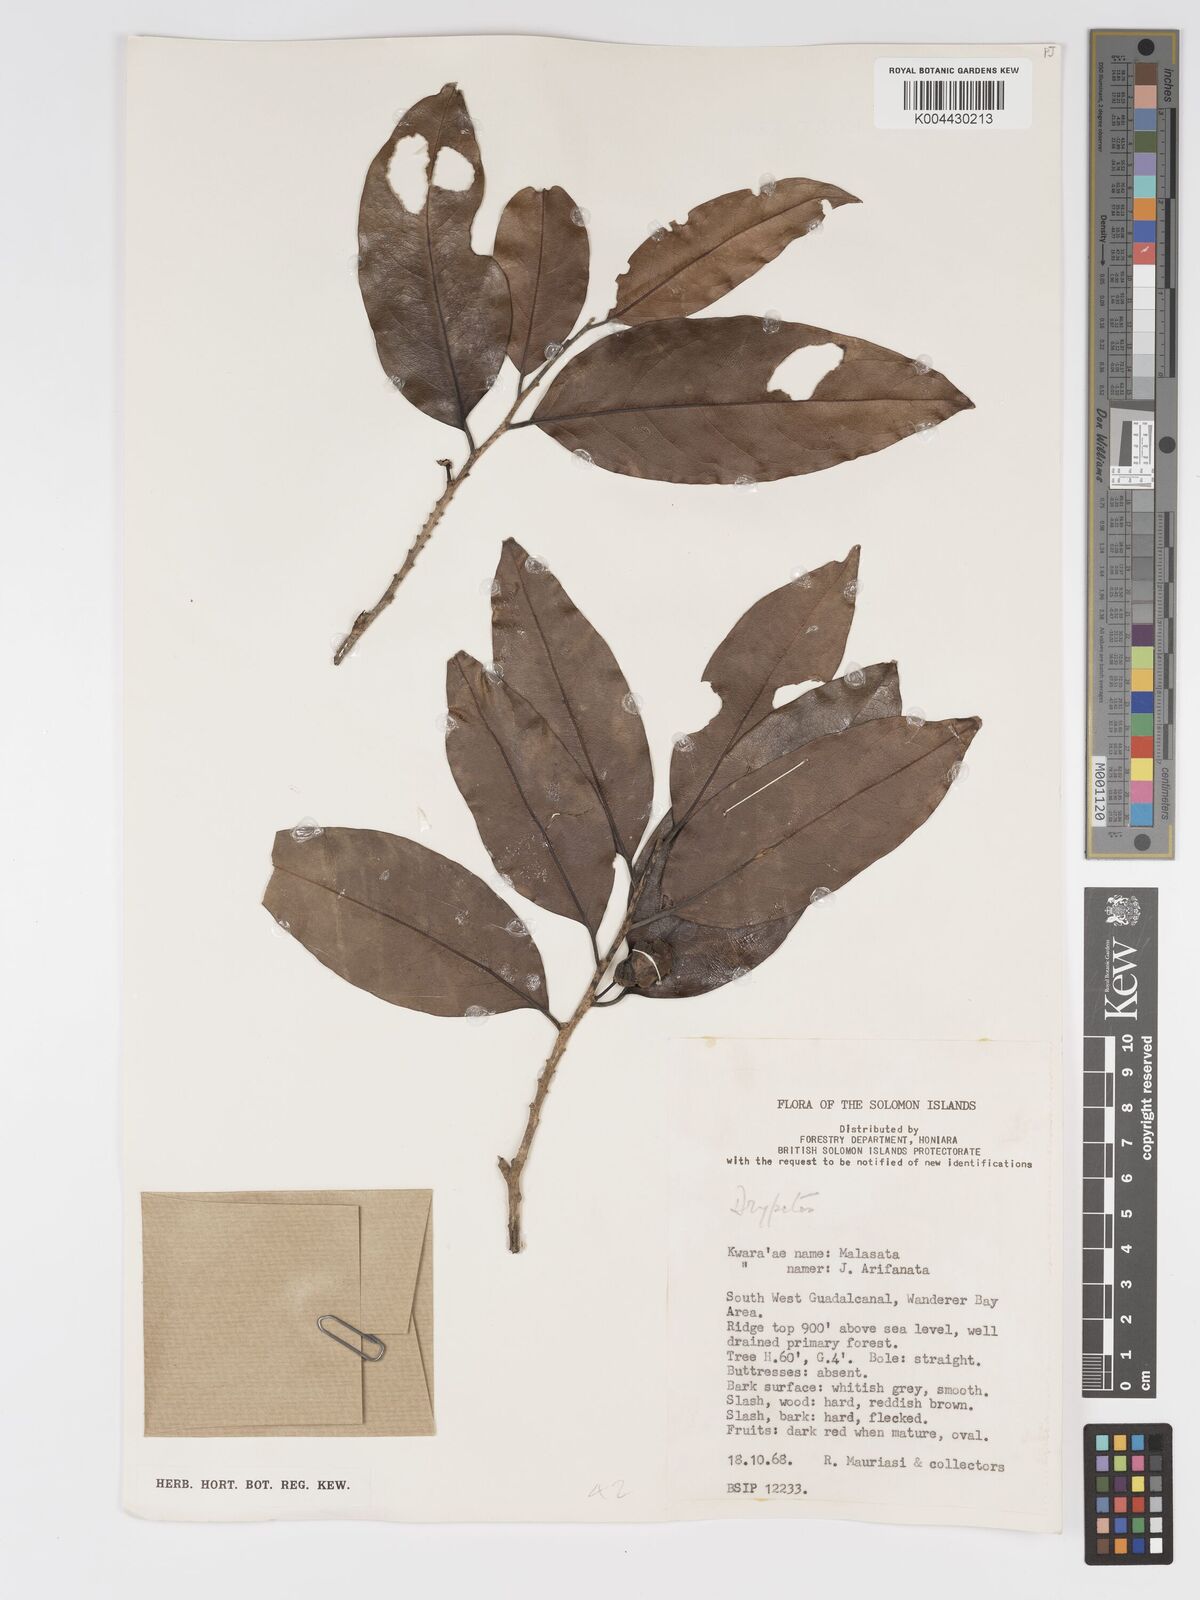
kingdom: Plantae
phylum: Tracheophyta
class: Magnoliopsida
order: Malpighiales
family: Putranjivaceae
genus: Drypetes
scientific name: Drypetes lasiogynoides
